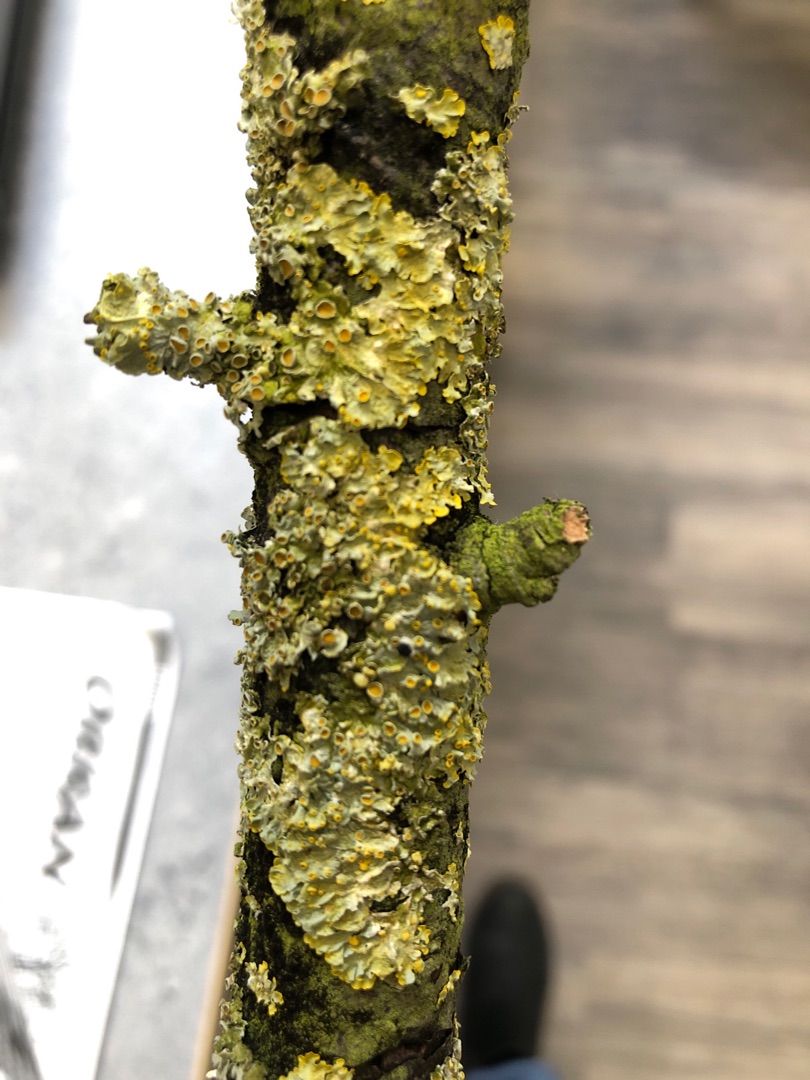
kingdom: Fungi
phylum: Ascomycota
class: Lecanoromycetes
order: Teloschistales
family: Teloschistaceae
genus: Xanthoria
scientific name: Xanthoria parietina
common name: Almindelig væggelav
